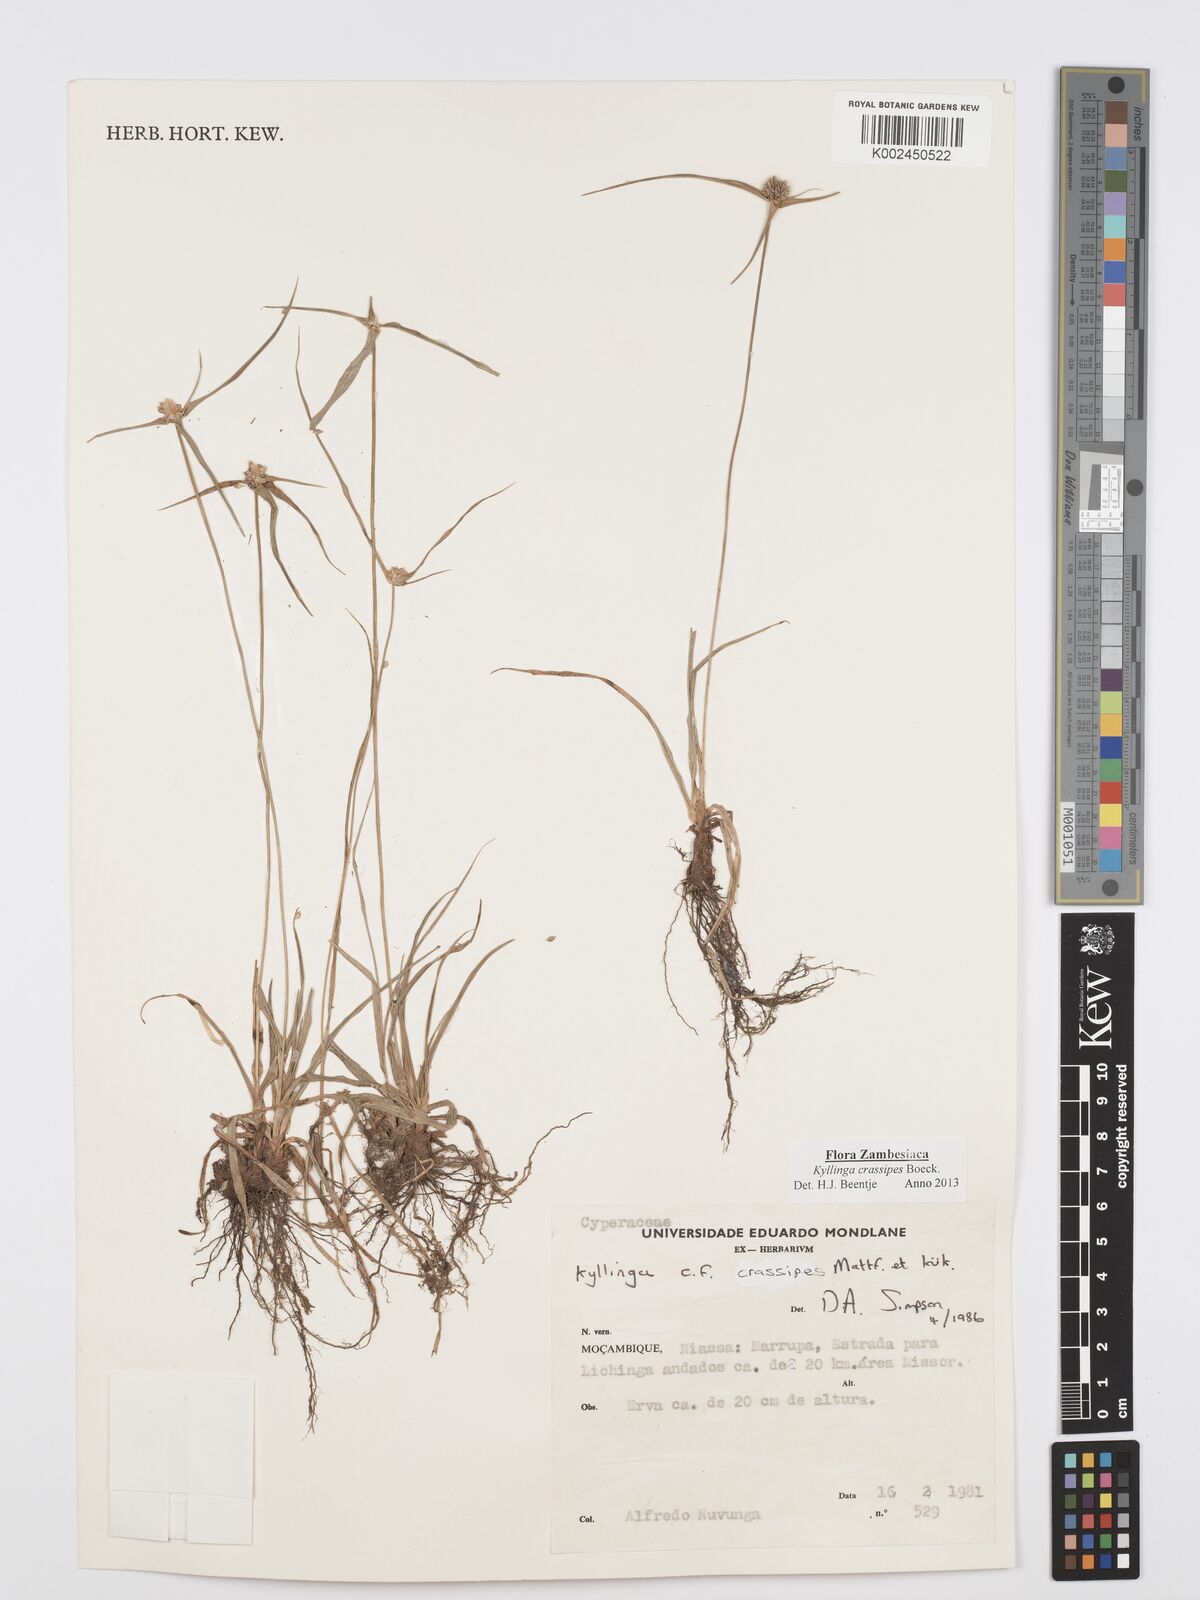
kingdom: Plantae
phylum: Tracheophyta
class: Liliopsida
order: Poales
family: Cyperaceae
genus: Cyperus
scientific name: Cyperus crassipes
